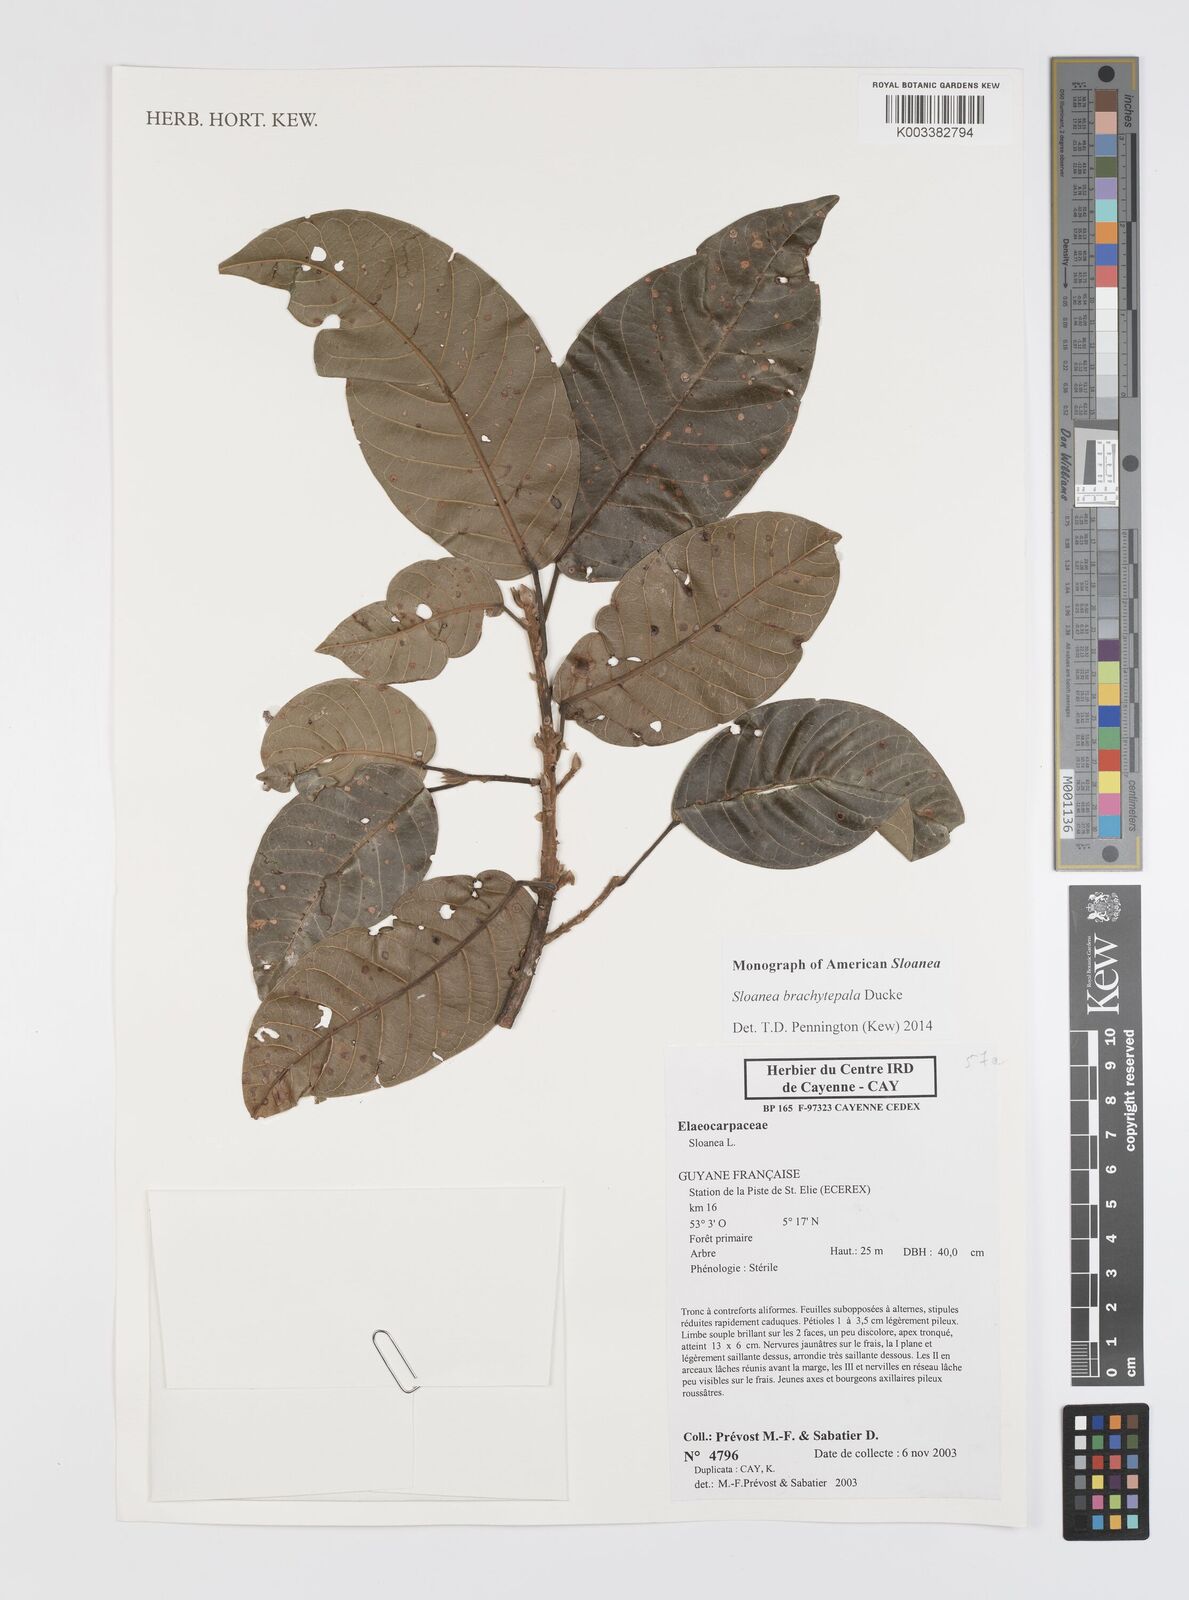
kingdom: Plantae
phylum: Tracheophyta
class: Magnoliopsida
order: Oxalidales
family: Elaeocarpaceae
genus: Sloanea
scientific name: Sloanea brachytepala
